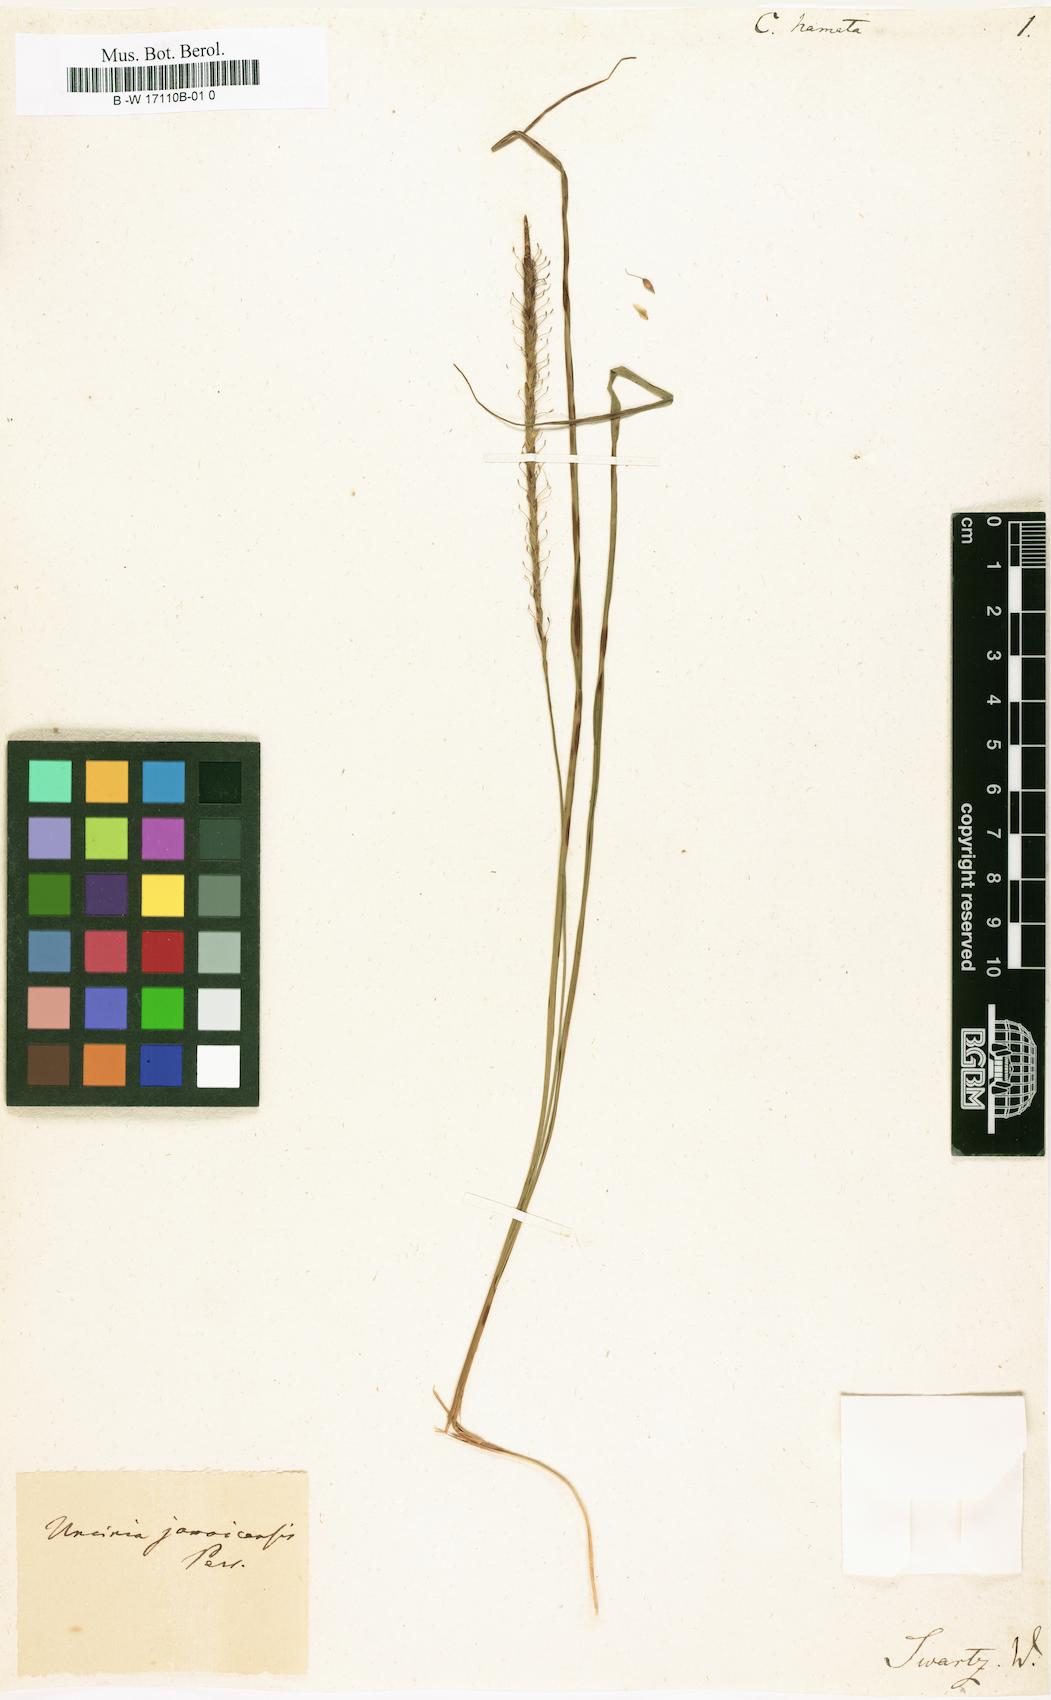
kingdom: Plantae
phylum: Tracheophyta
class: Liliopsida
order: Poales
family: Cyperaceae
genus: Carex
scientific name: Carex hamata
